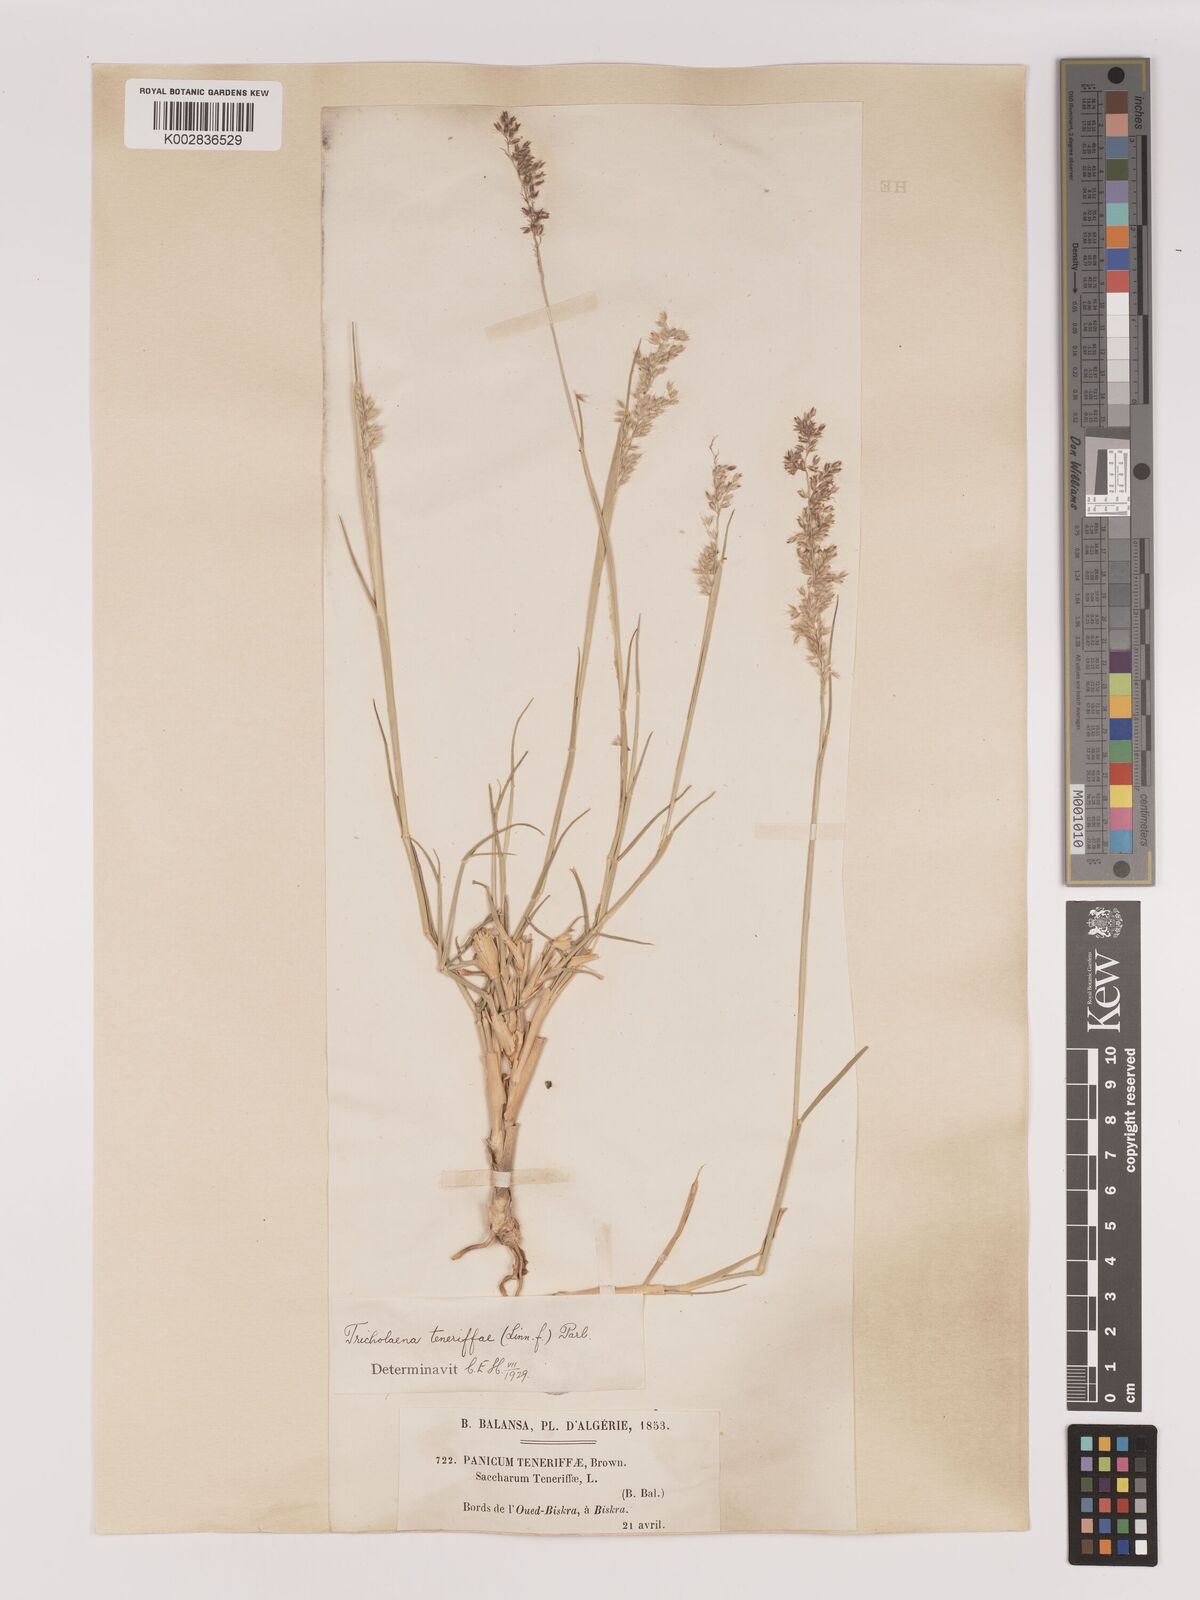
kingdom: Plantae
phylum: Tracheophyta
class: Liliopsida
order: Poales
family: Poaceae
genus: Tricholaena
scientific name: Tricholaena teneriffae
